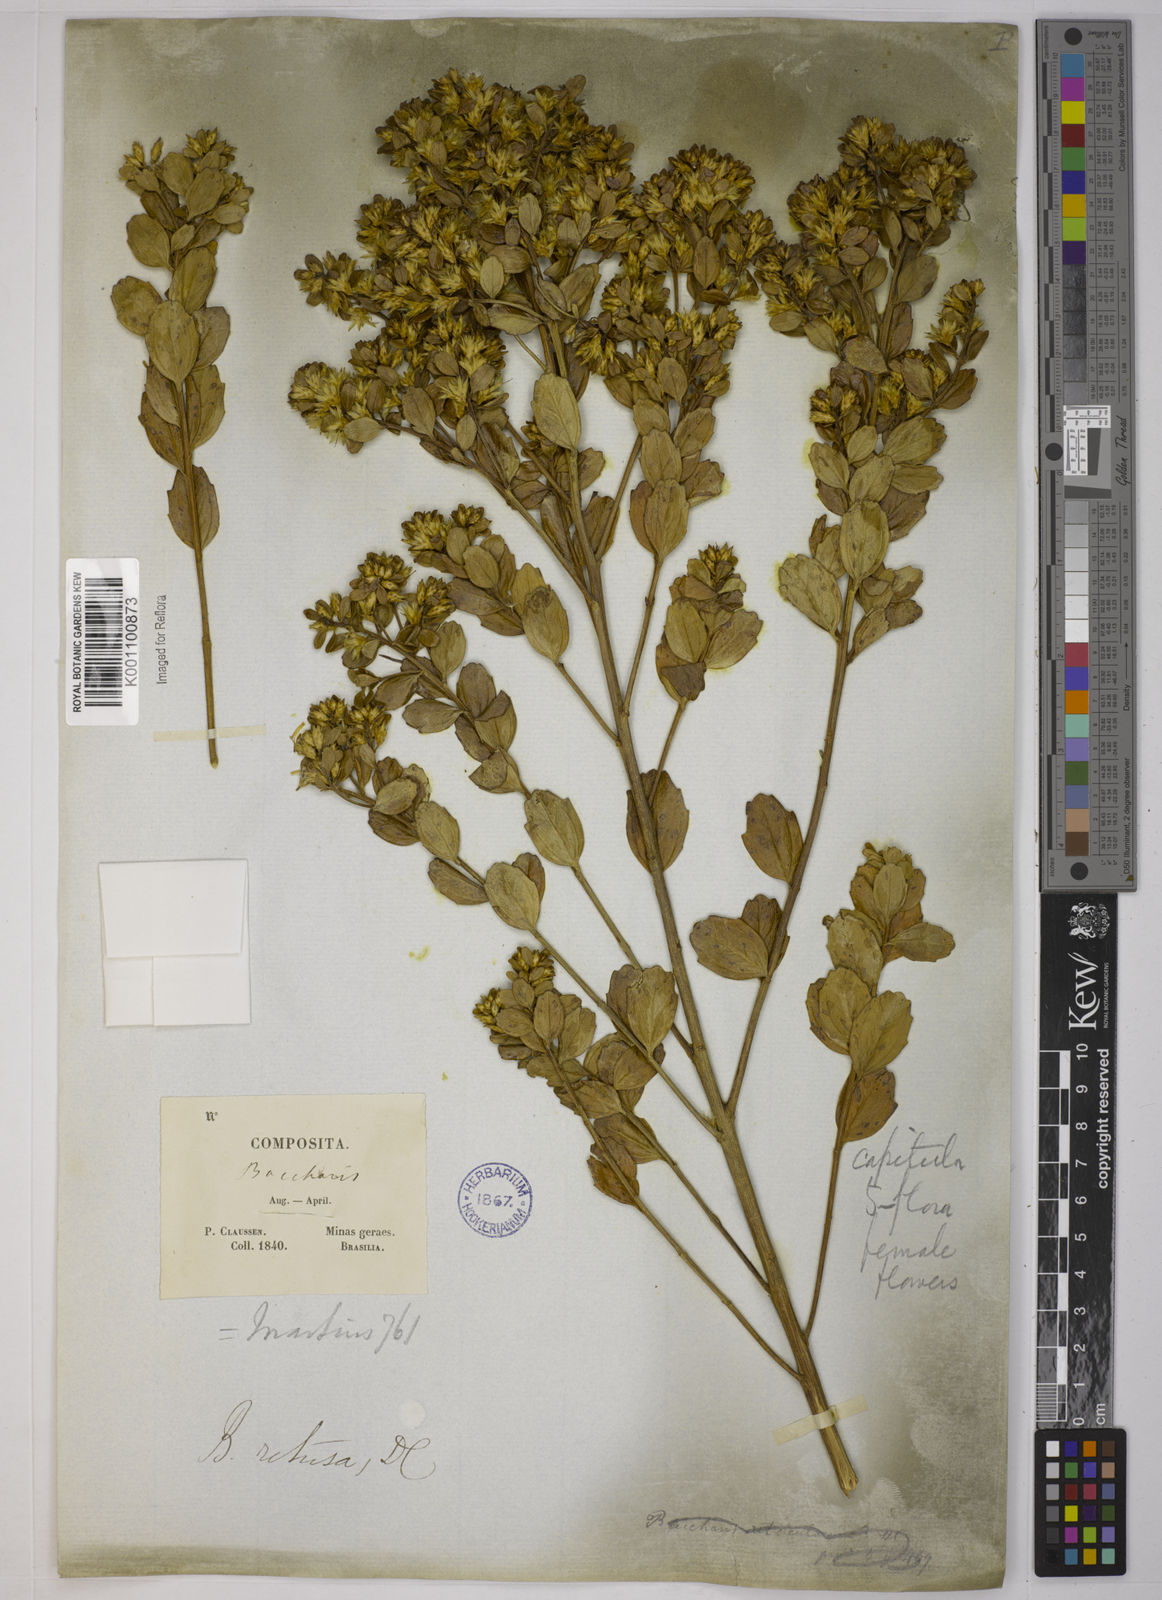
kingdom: Plantae
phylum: Tracheophyta
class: Magnoliopsida
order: Asterales
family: Asteraceae
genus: Baccharis
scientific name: Baccharis retusa
